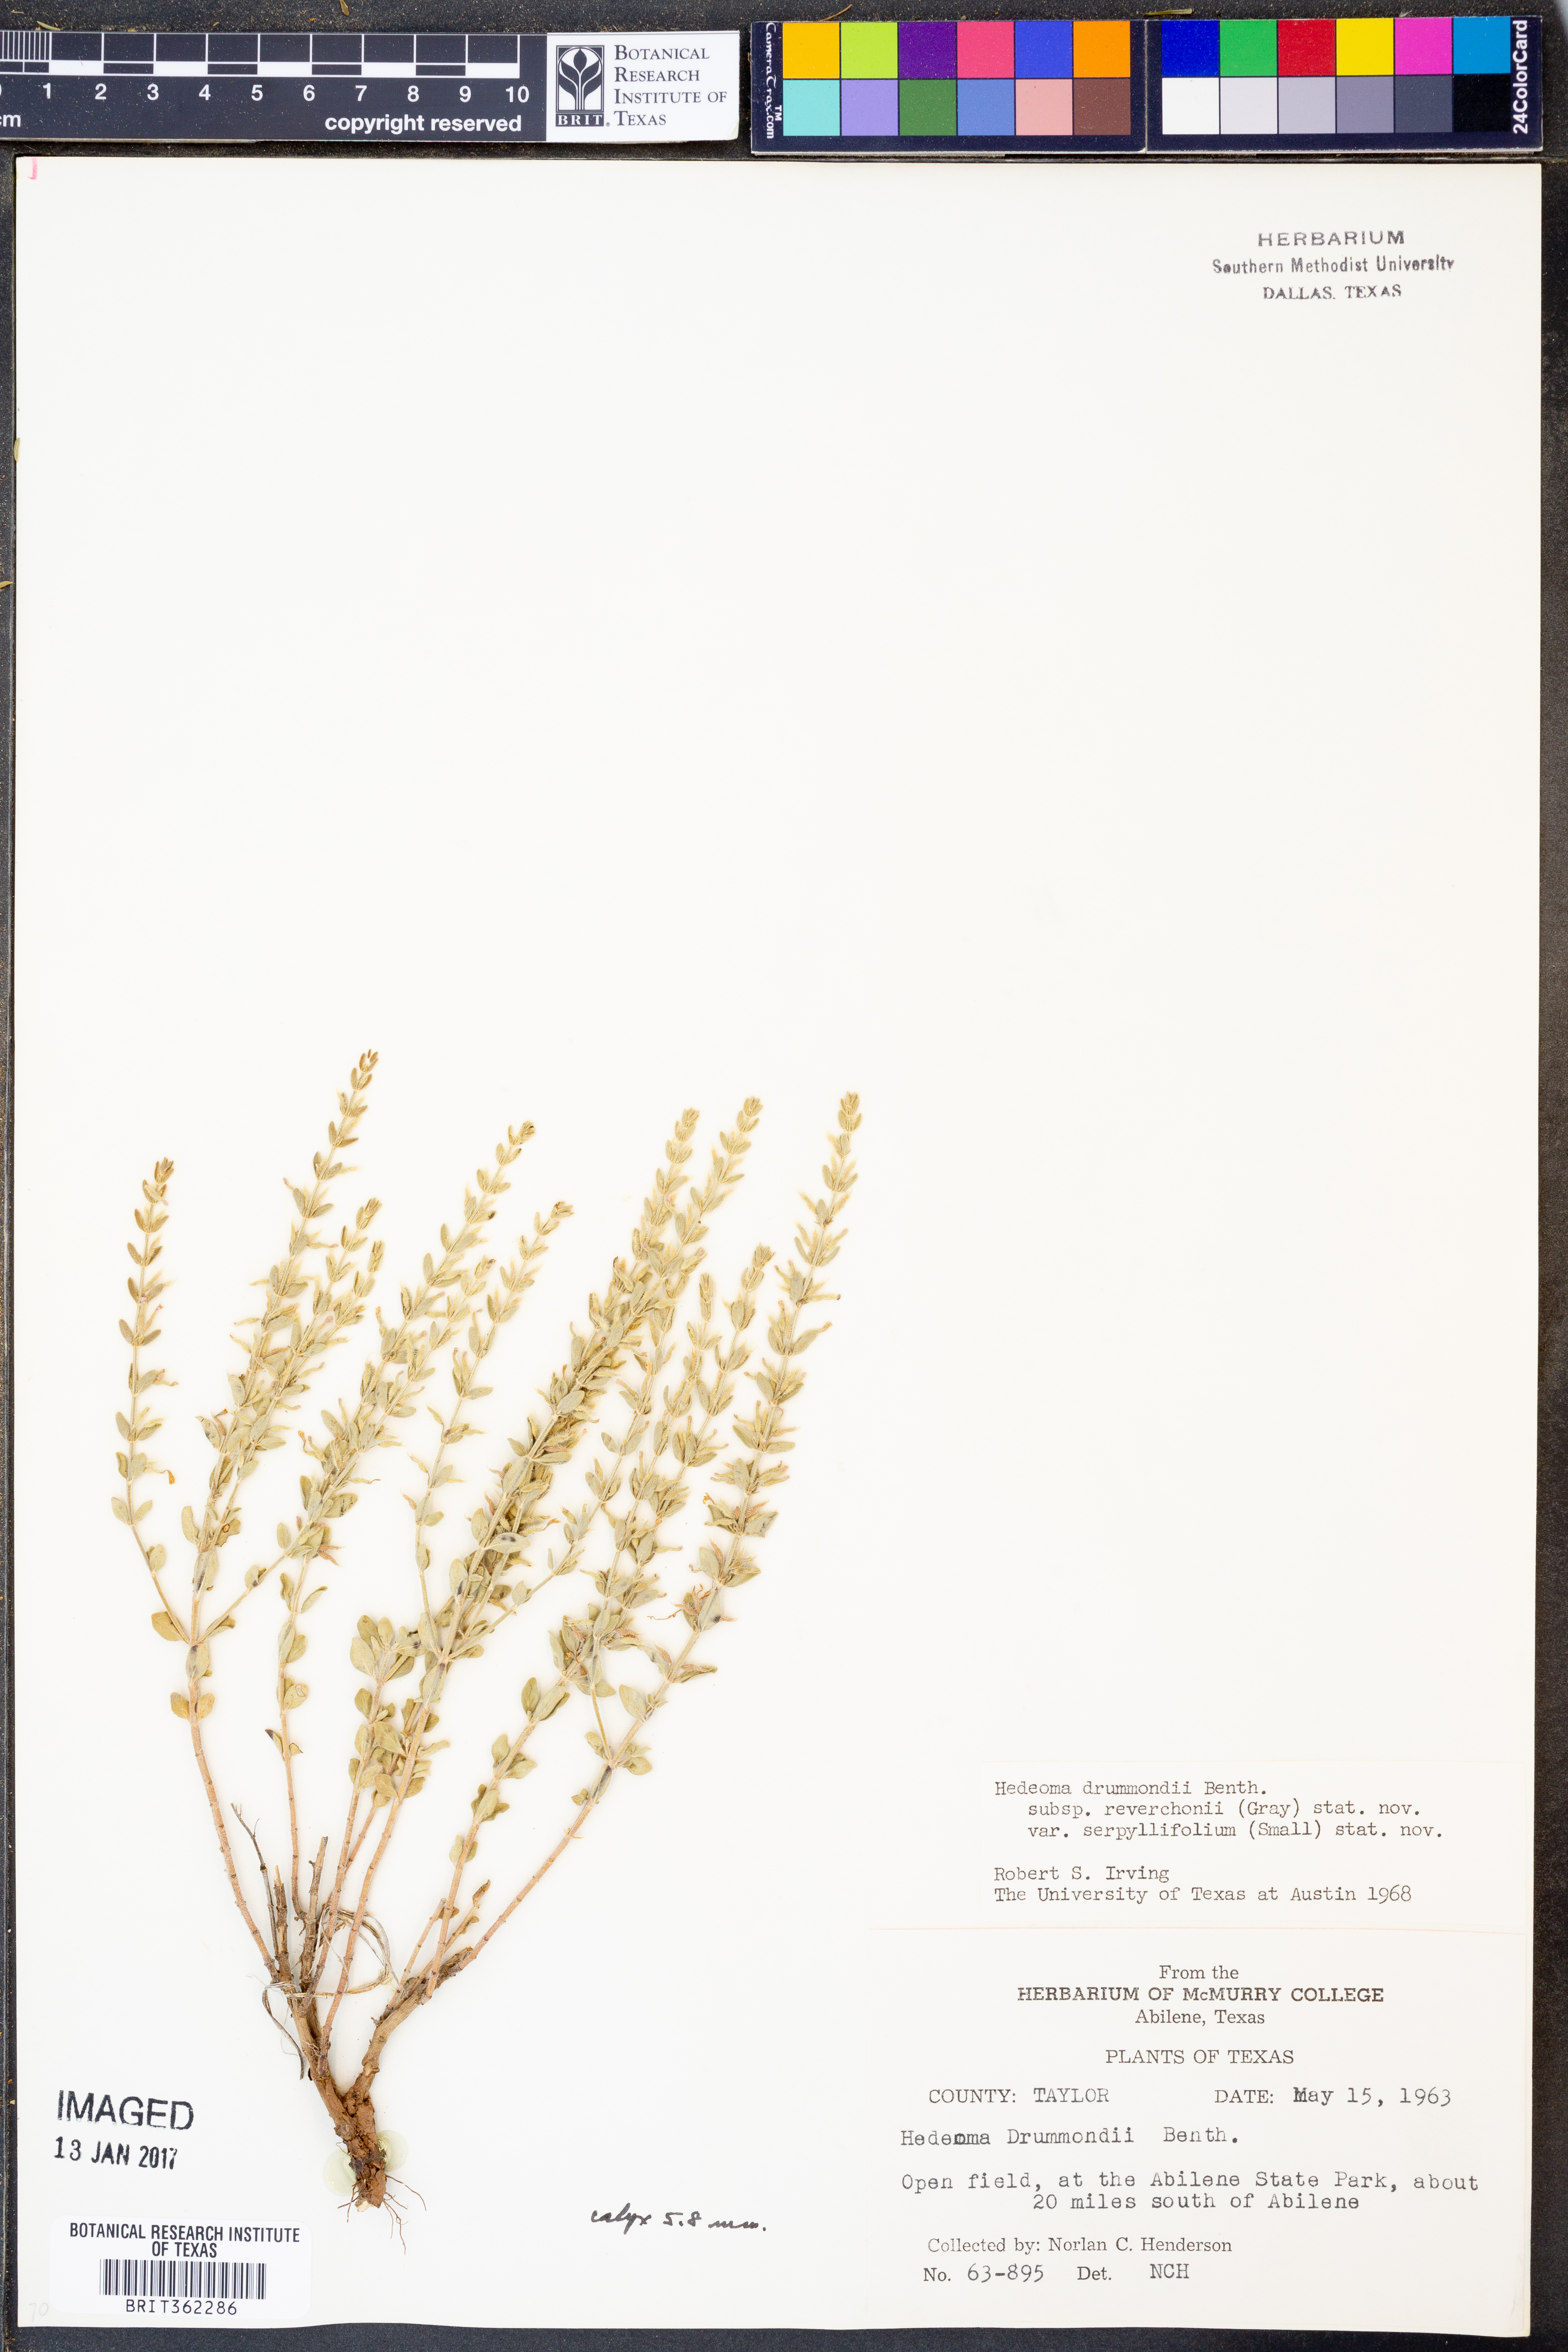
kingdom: Plantae
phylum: Tracheophyta
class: Magnoliopsida
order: Lamiales
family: Lamiaceae
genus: Hedeoma
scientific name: Hedeoma reverchonii
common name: Reverchon's false penny-royal
